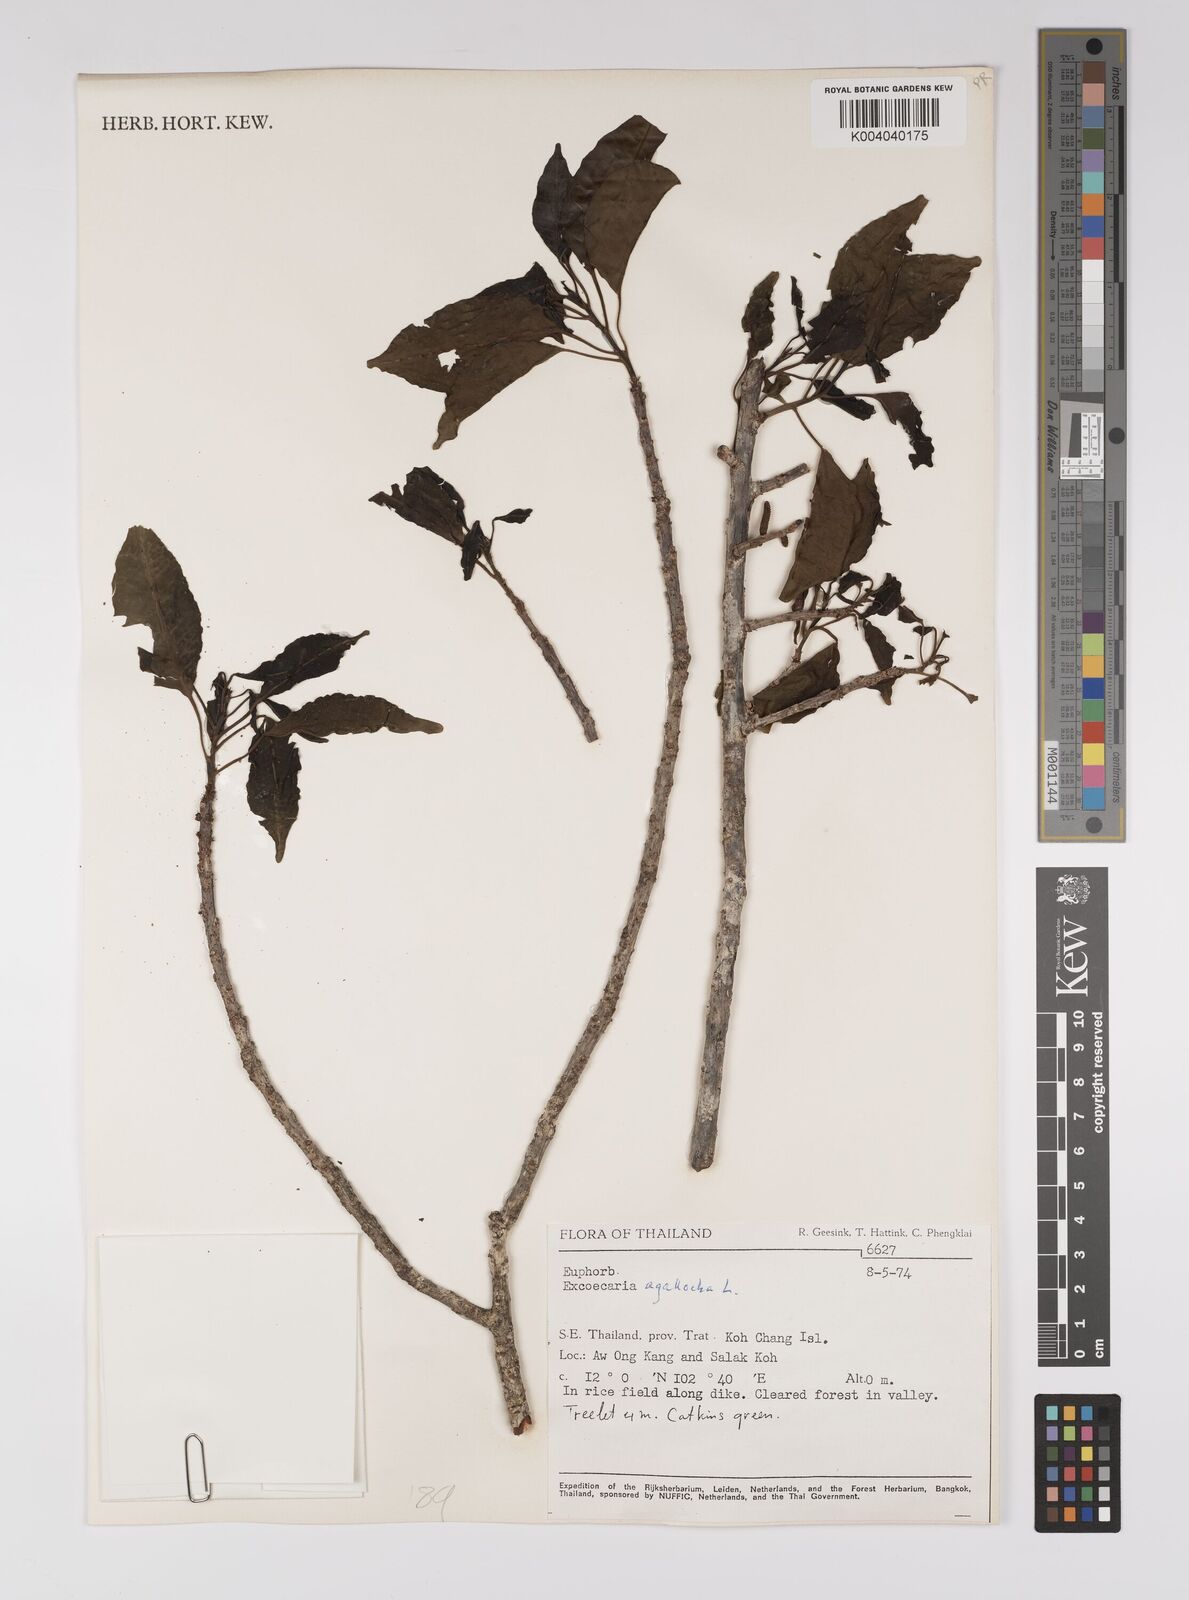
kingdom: Plantae
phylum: Tracheophyta
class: Magnoliopsida
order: Malpighiales
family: Euphorbiaceae
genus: Excoecaria
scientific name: Excoecaria agallocha
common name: River poisontree
